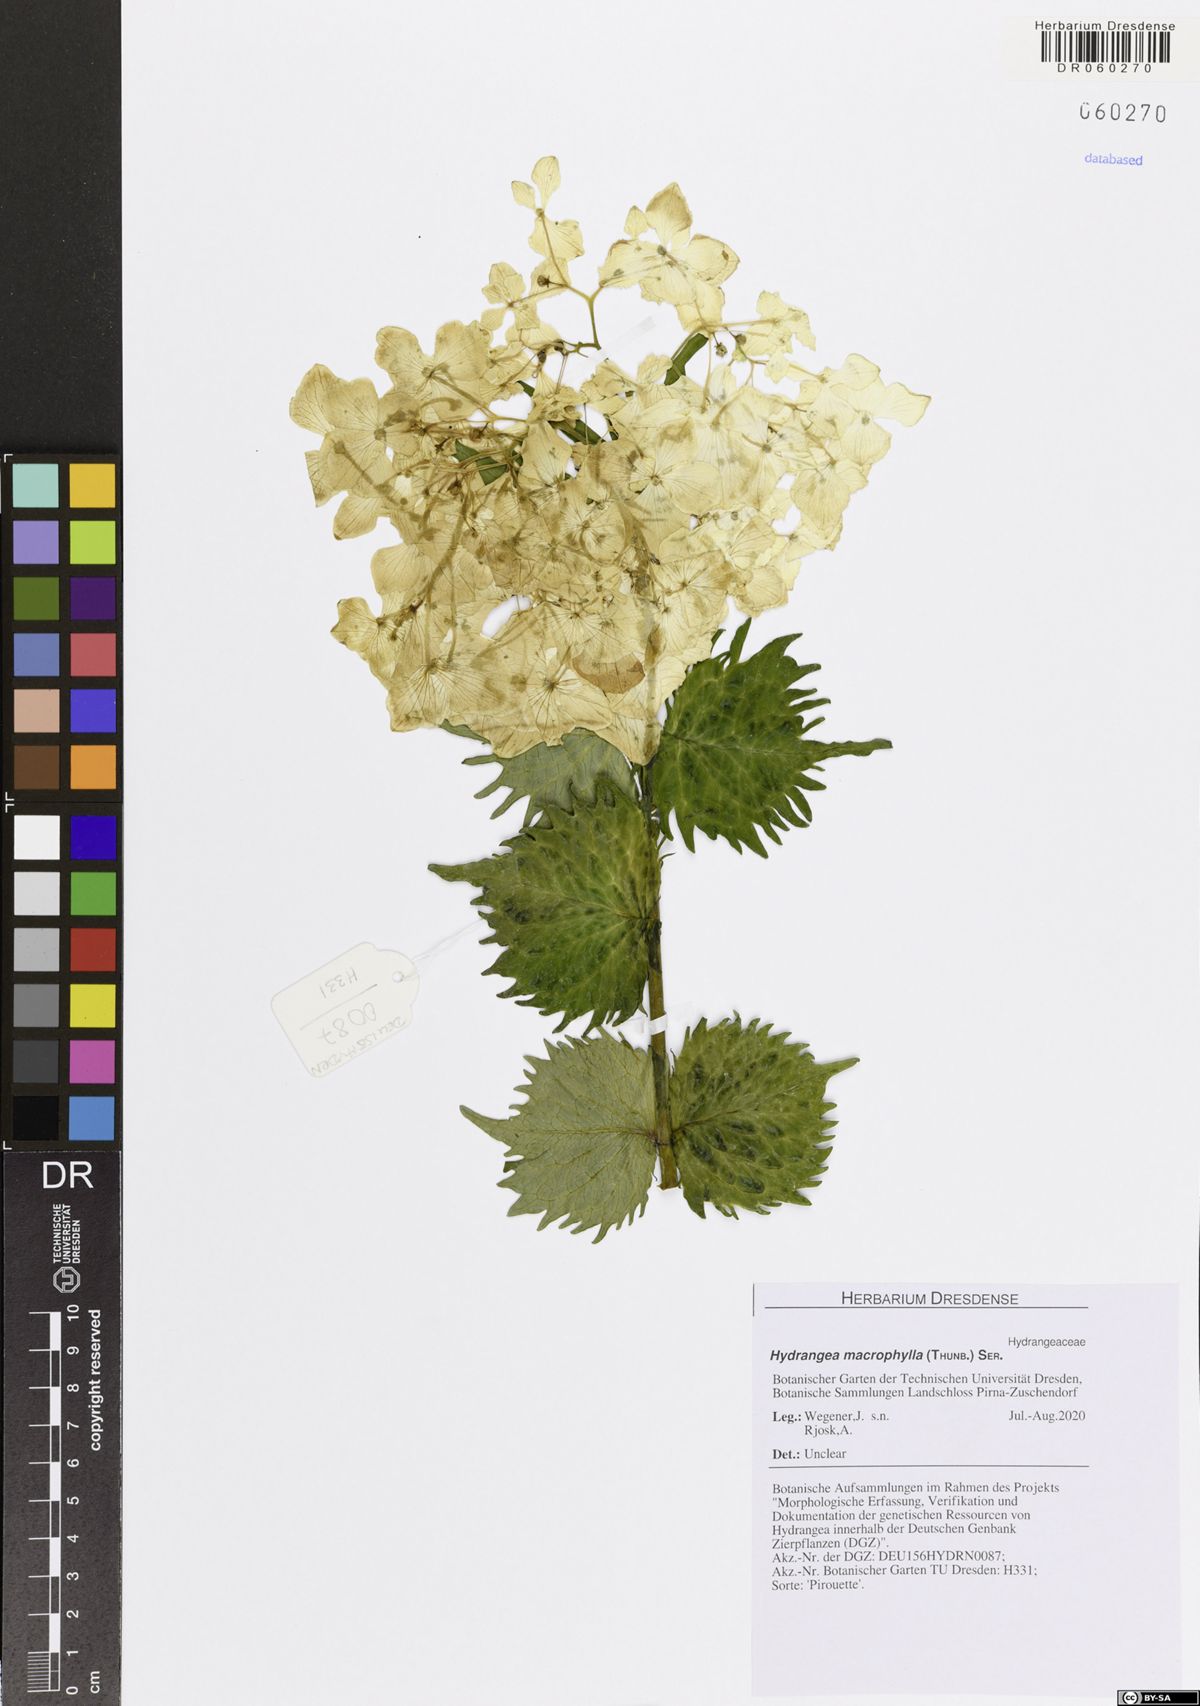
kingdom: Plantae
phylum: Tracheophyta
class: Magnoliopsida
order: Cornales
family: Hydrangeaceae
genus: Hydrangea
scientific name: Hydrangea macrophylla
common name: Hydrangea
